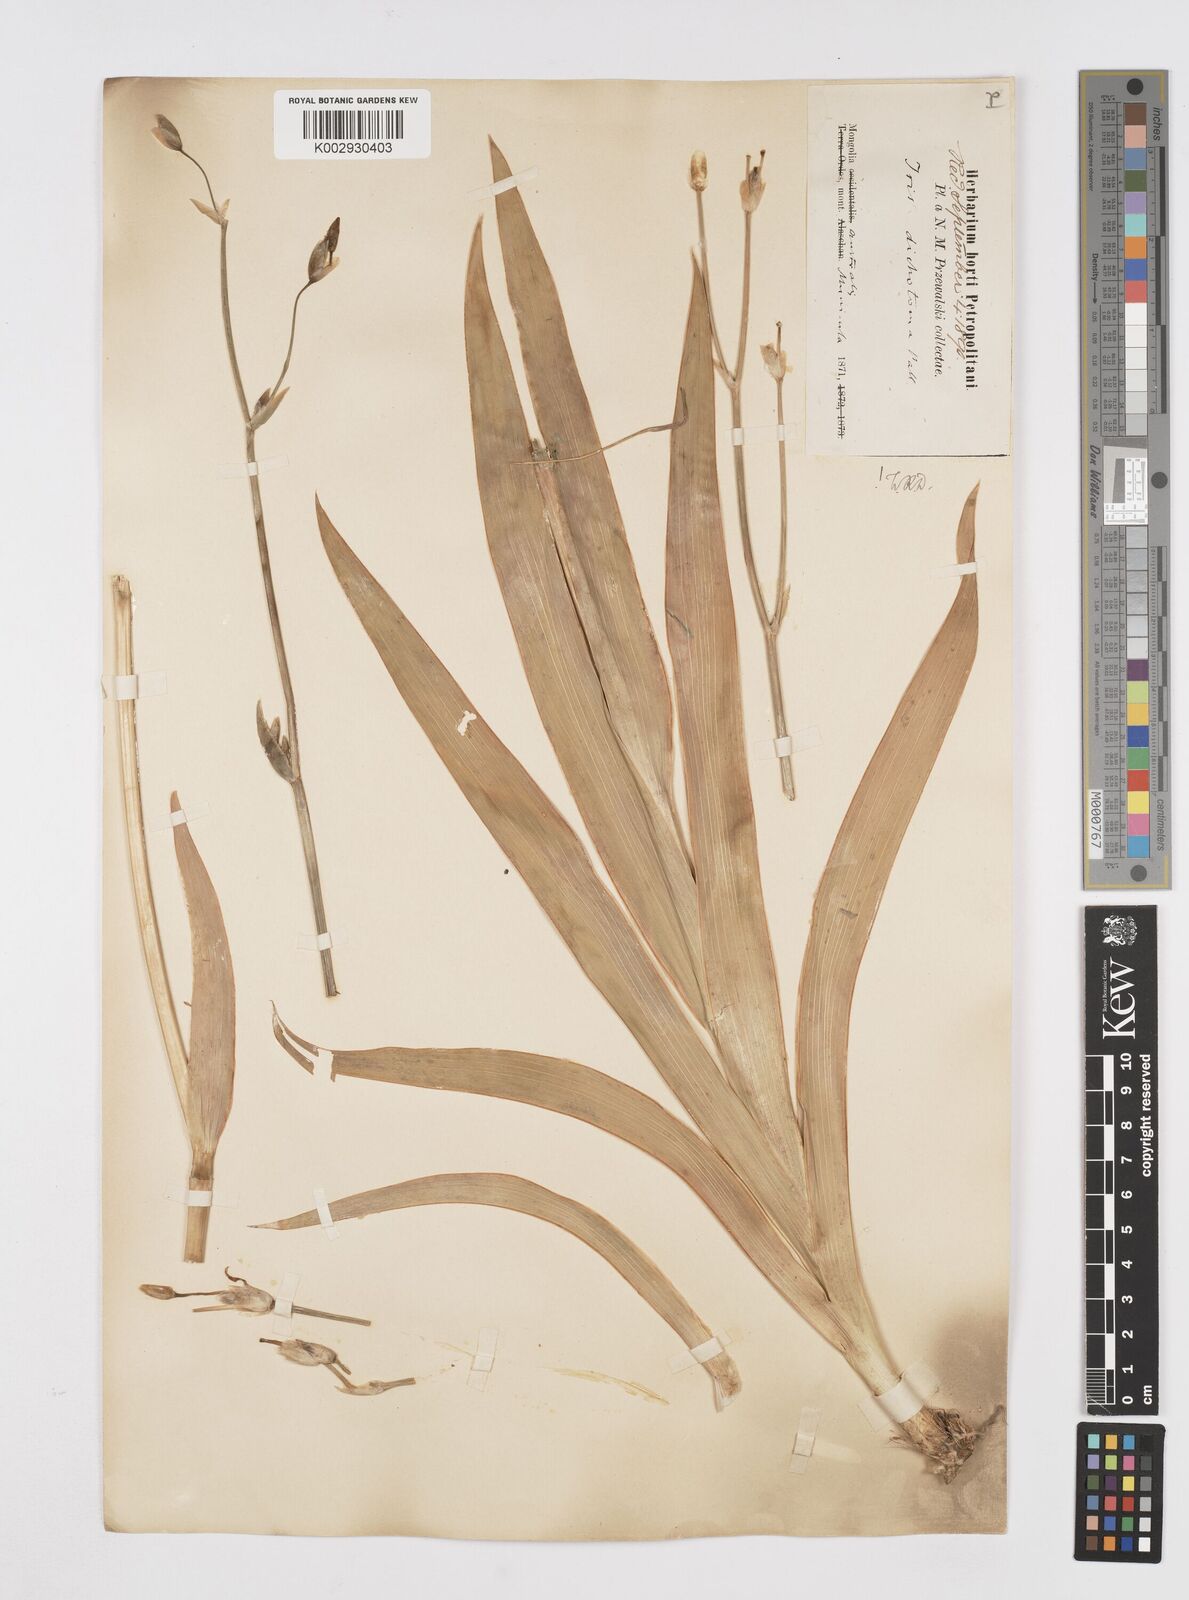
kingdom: Plantae
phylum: Tracheophyta
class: Liliopsida
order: Asparagales
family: Iridaceae
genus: Iris
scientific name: Iris dichotoma
